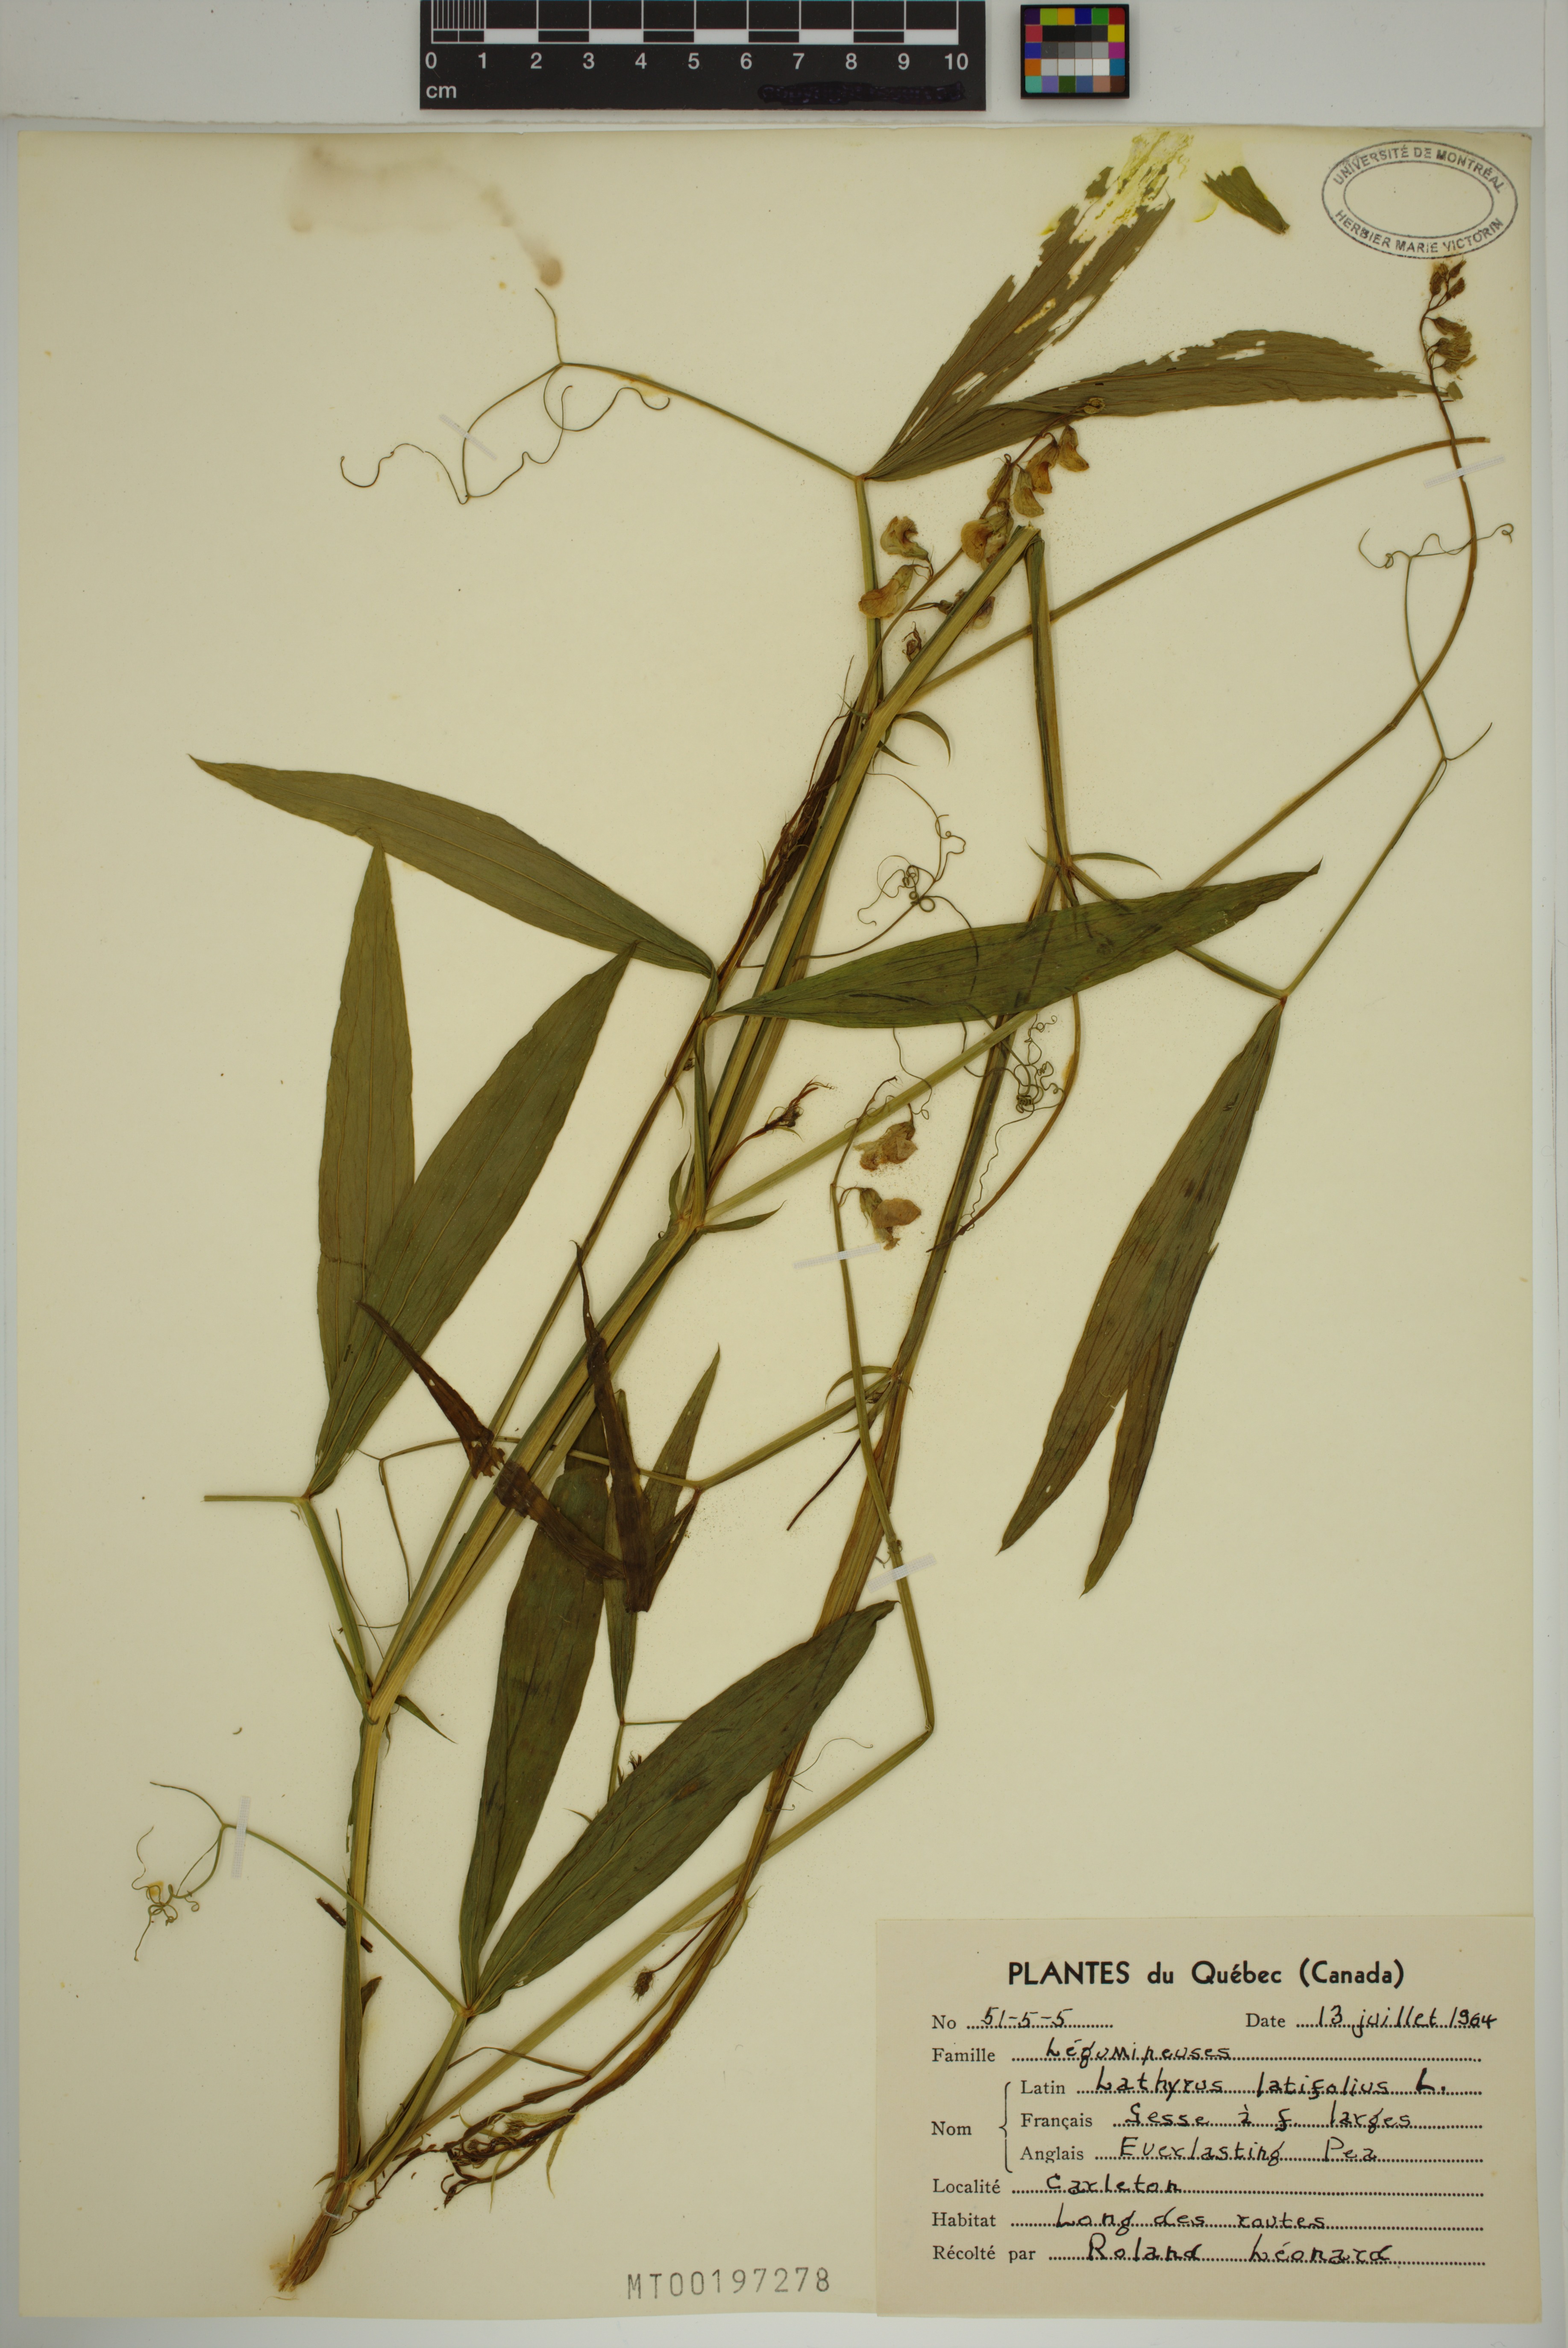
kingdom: Plantae
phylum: Tracheophyta
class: Magnoliopsida
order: Fabales
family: Fabaceae
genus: Lathyrus
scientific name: Lathyrus latifolius
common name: Perennial pea
